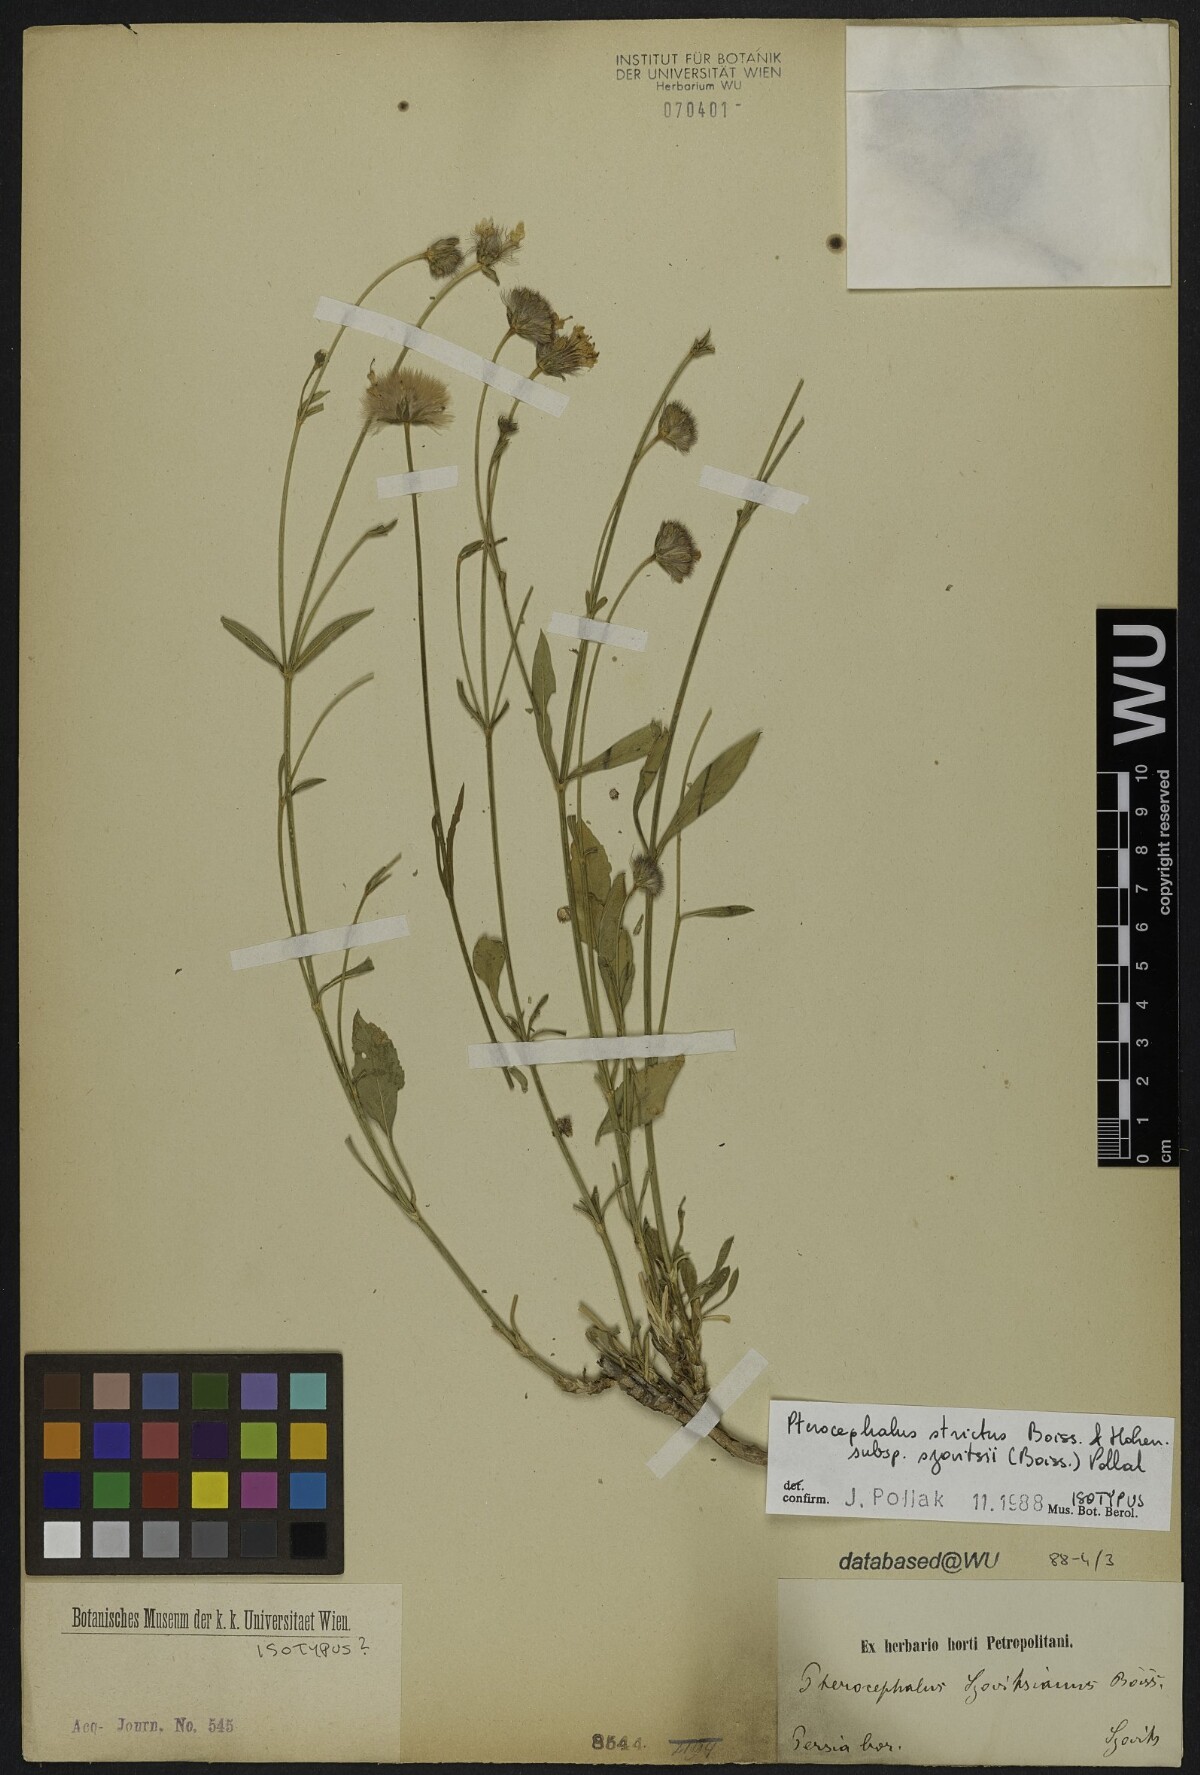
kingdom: Plantae
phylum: Tracheophyta
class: Magnoliopsida
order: Dipsacales
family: Caprifoliaceae
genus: Pterocephalus
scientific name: Pterocephalus szovitsii
